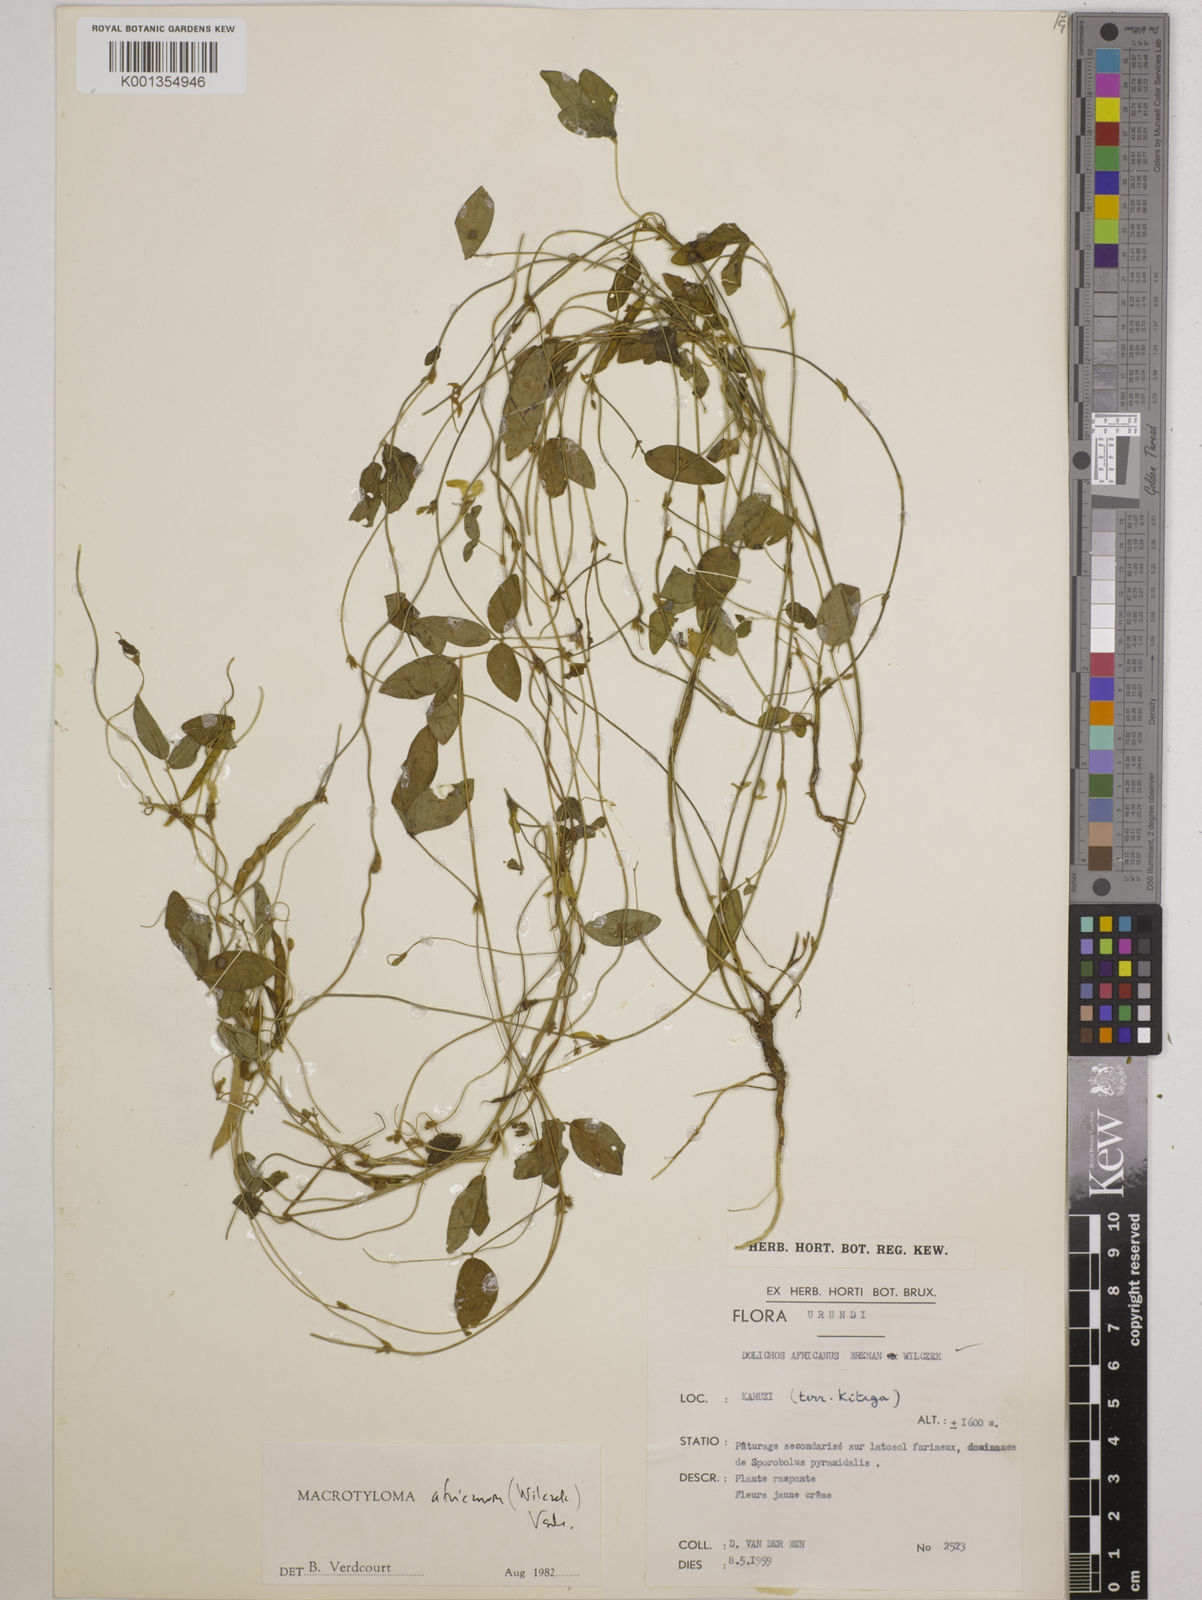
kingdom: Plantae
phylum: Tracheophyta
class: Magnoliopsida
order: Fabales
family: Fabaceae
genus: Macrotyloma
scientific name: Macrotyloma africanum
